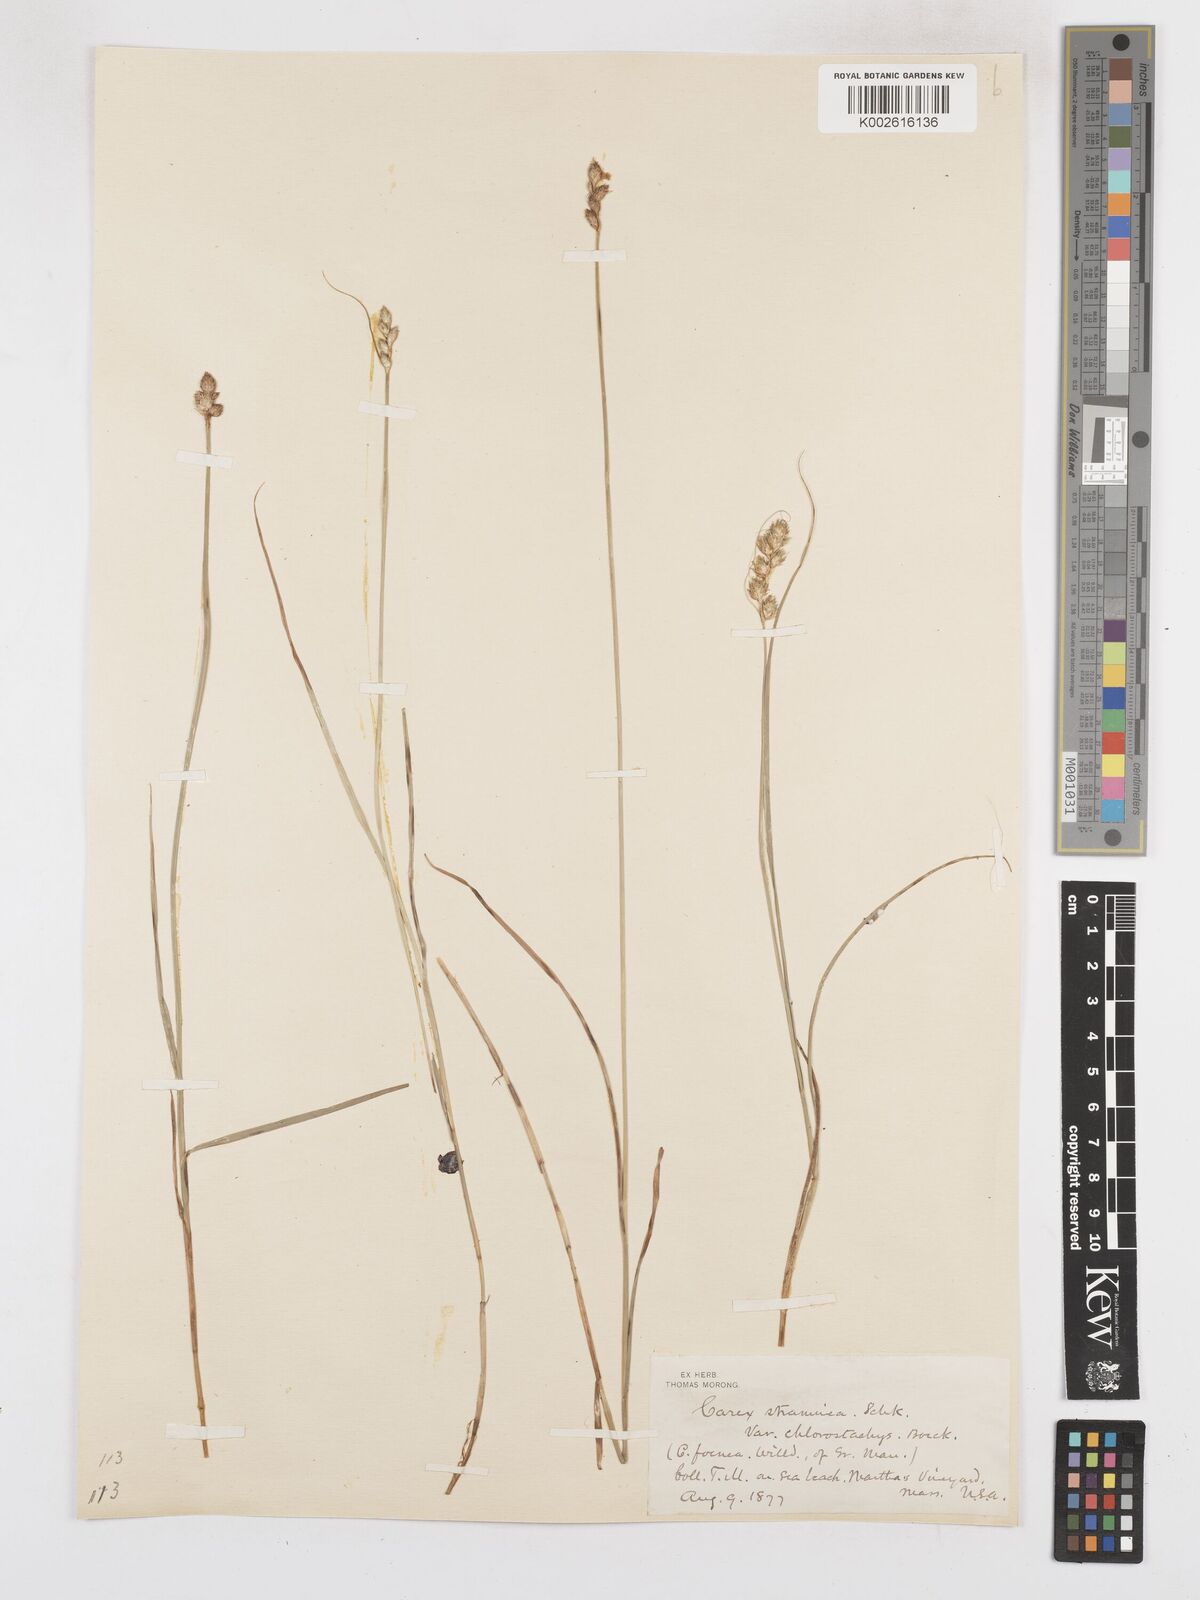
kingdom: Plantae
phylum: Tracheophyta
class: Liliopsida
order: Poales
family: Cyperaceae
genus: Carex
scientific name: Carex brevior
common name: Brevior sedge
